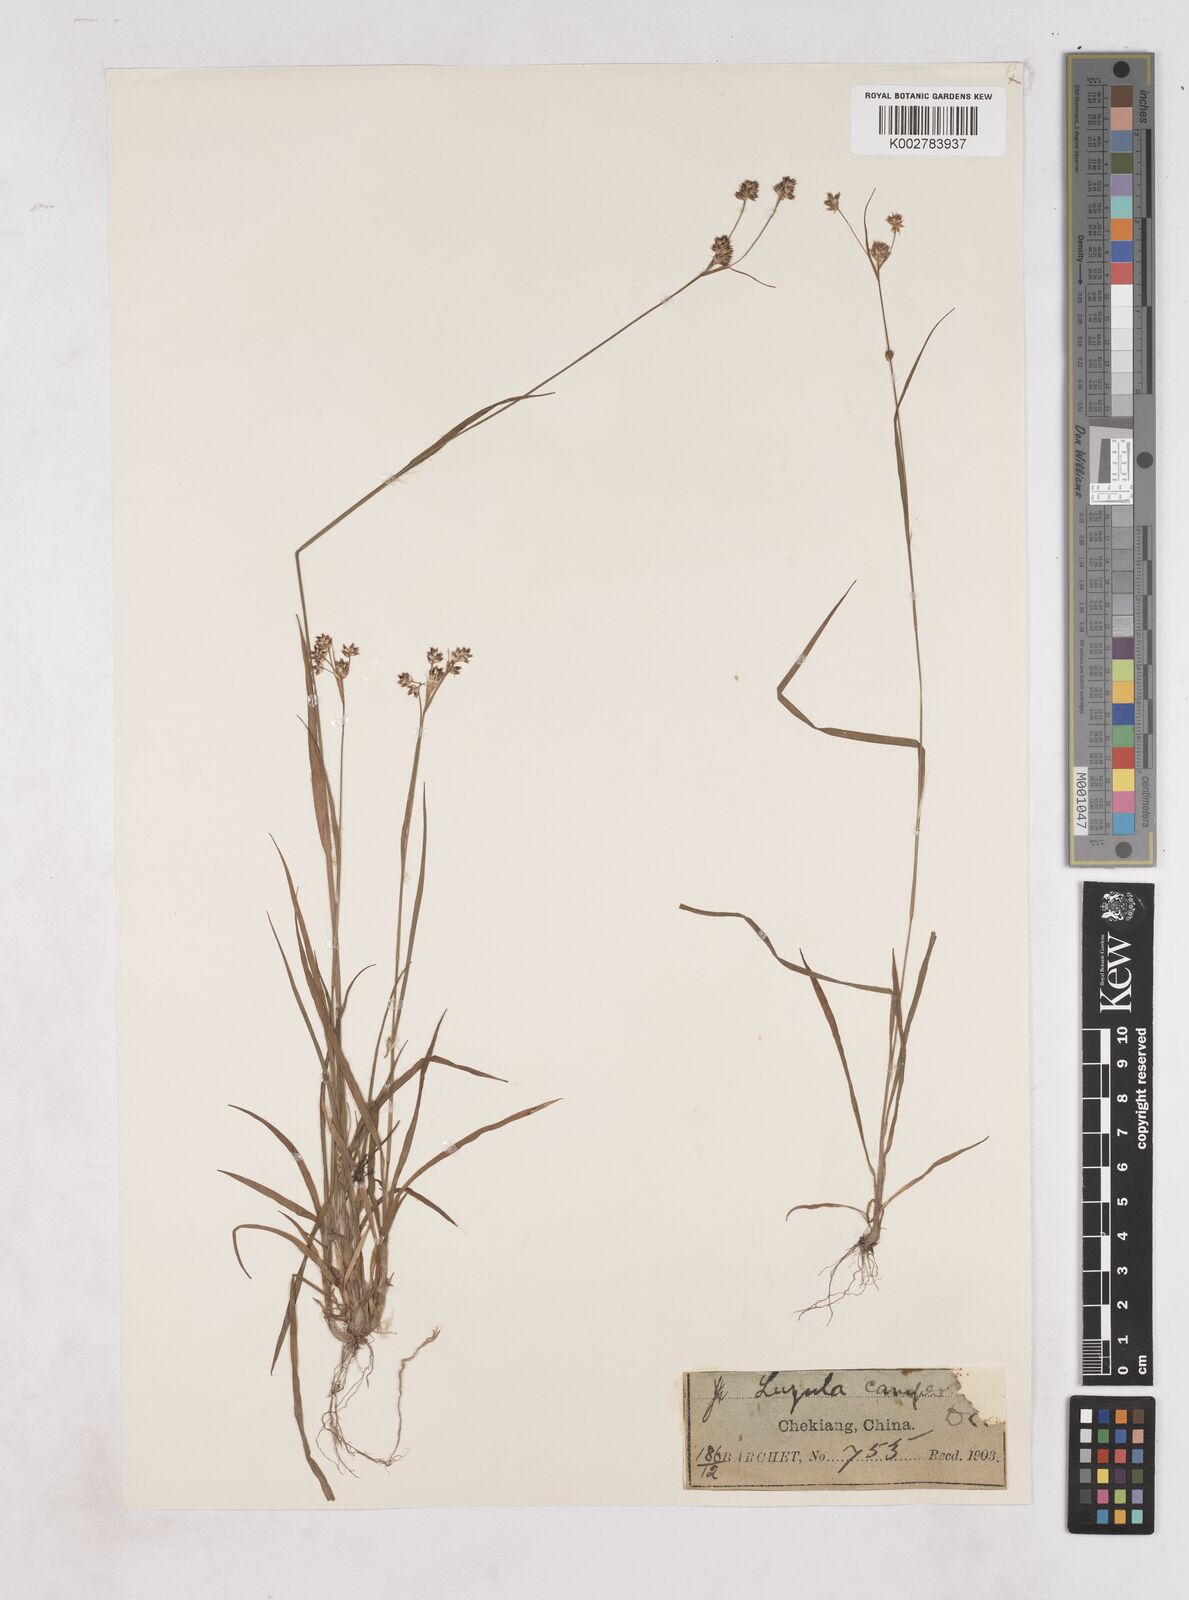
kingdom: Plantae
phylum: Tracheophyta
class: Liliopsida
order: Poales
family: Juncaceae
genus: Luzula
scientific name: Luzula campestris
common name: Field wood-rush
